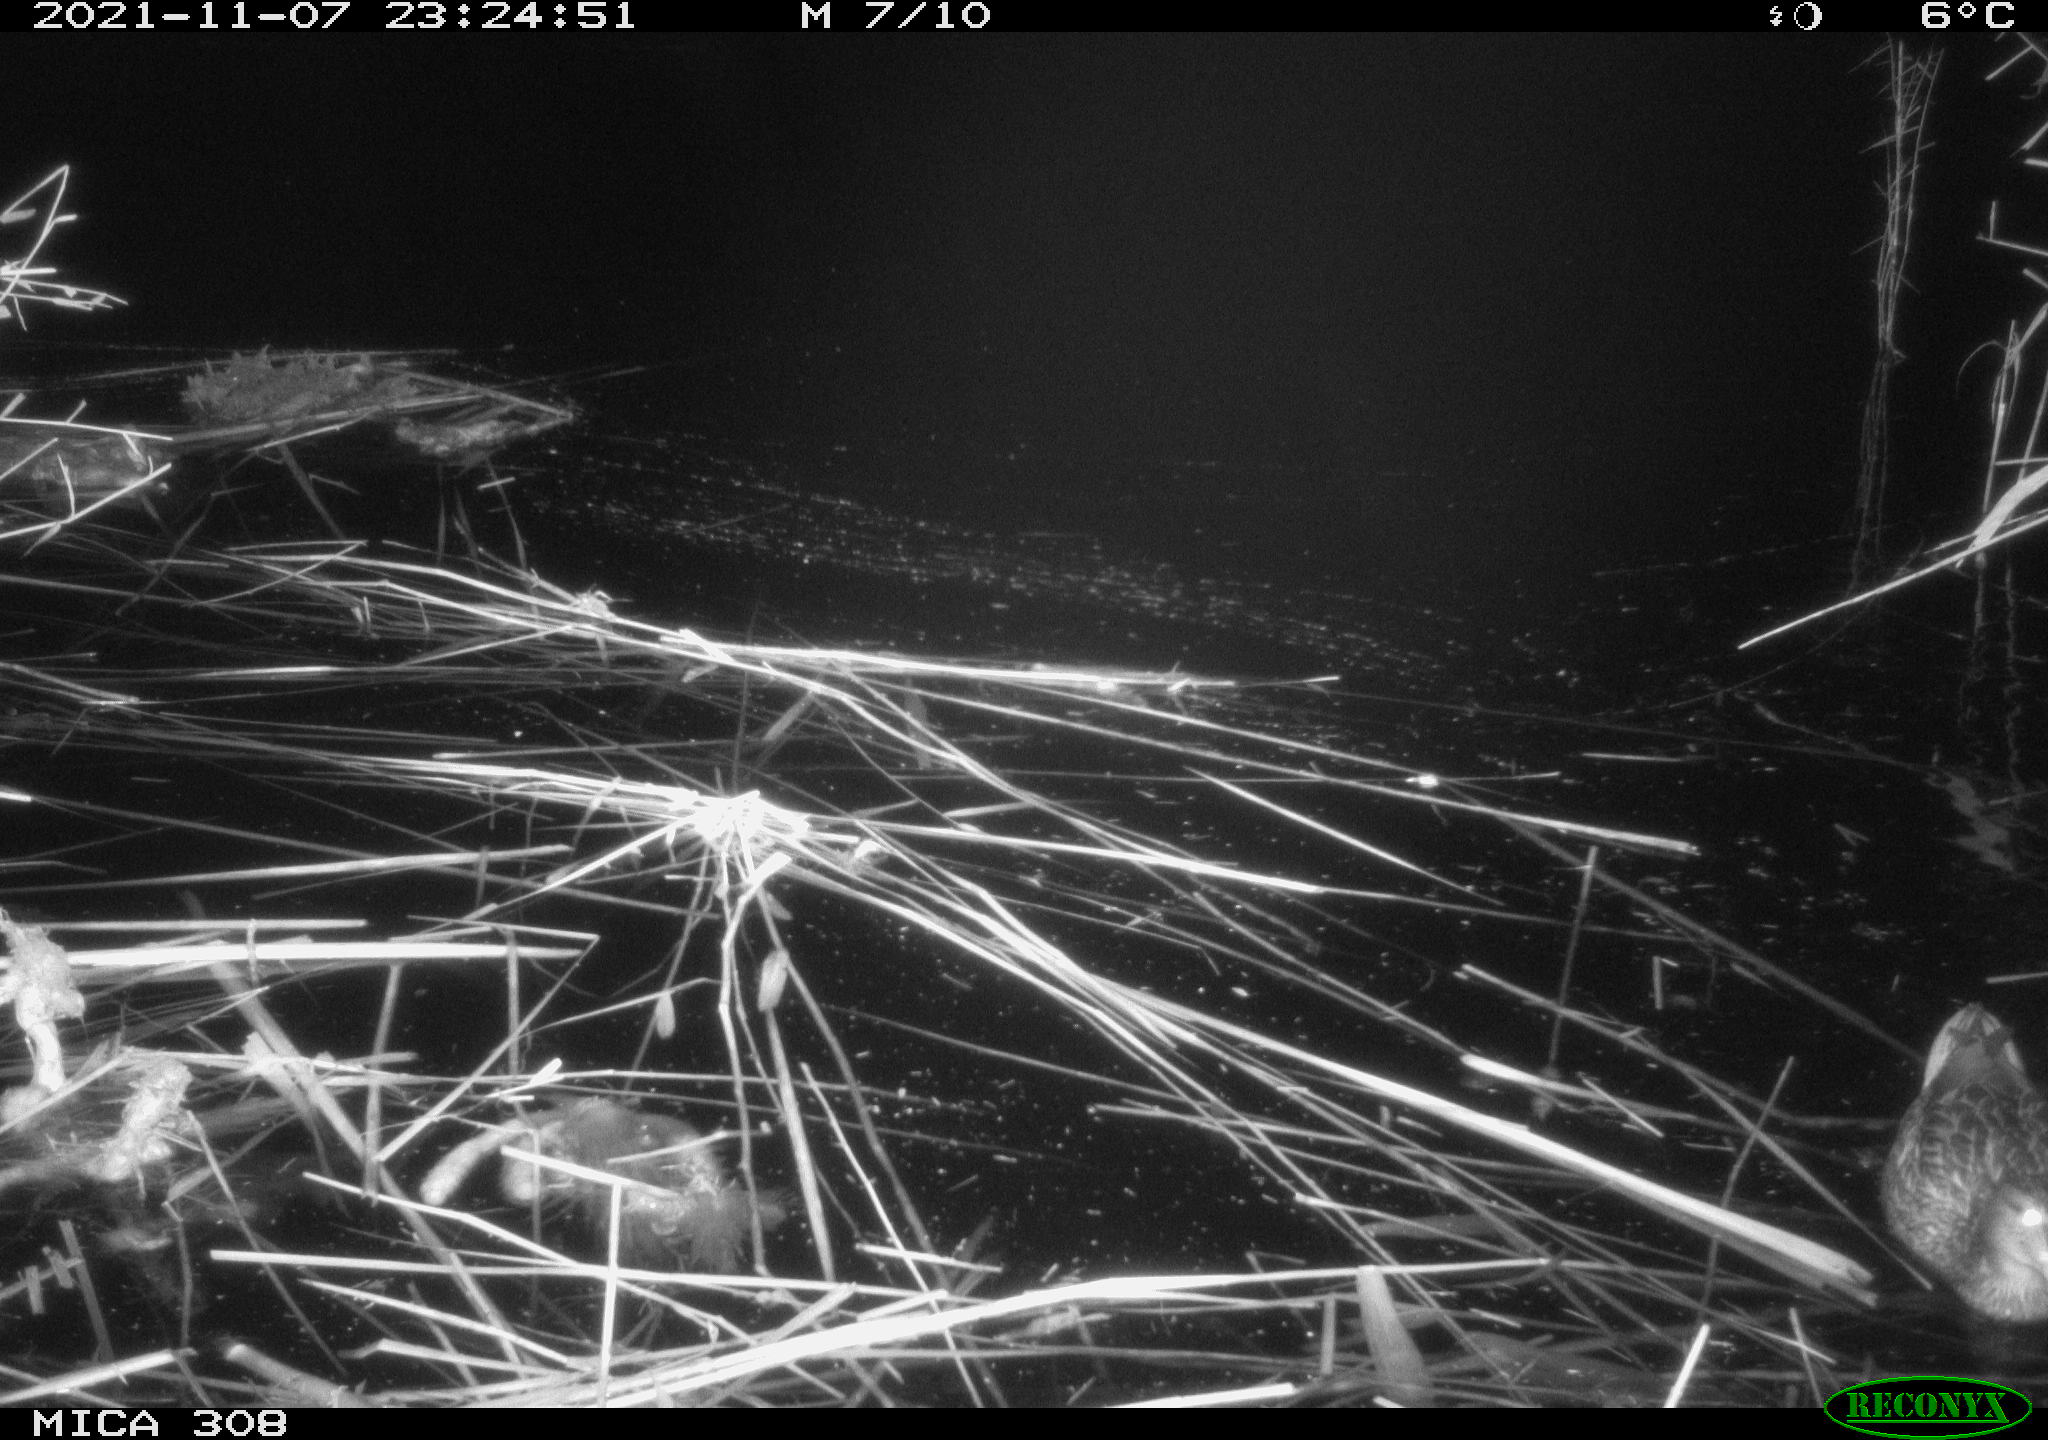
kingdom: Animalia
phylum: Chordata
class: Aves
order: Gruiformes
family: Rallidae
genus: Gallinula
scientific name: Gallinula chloropus
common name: Common moorhen
